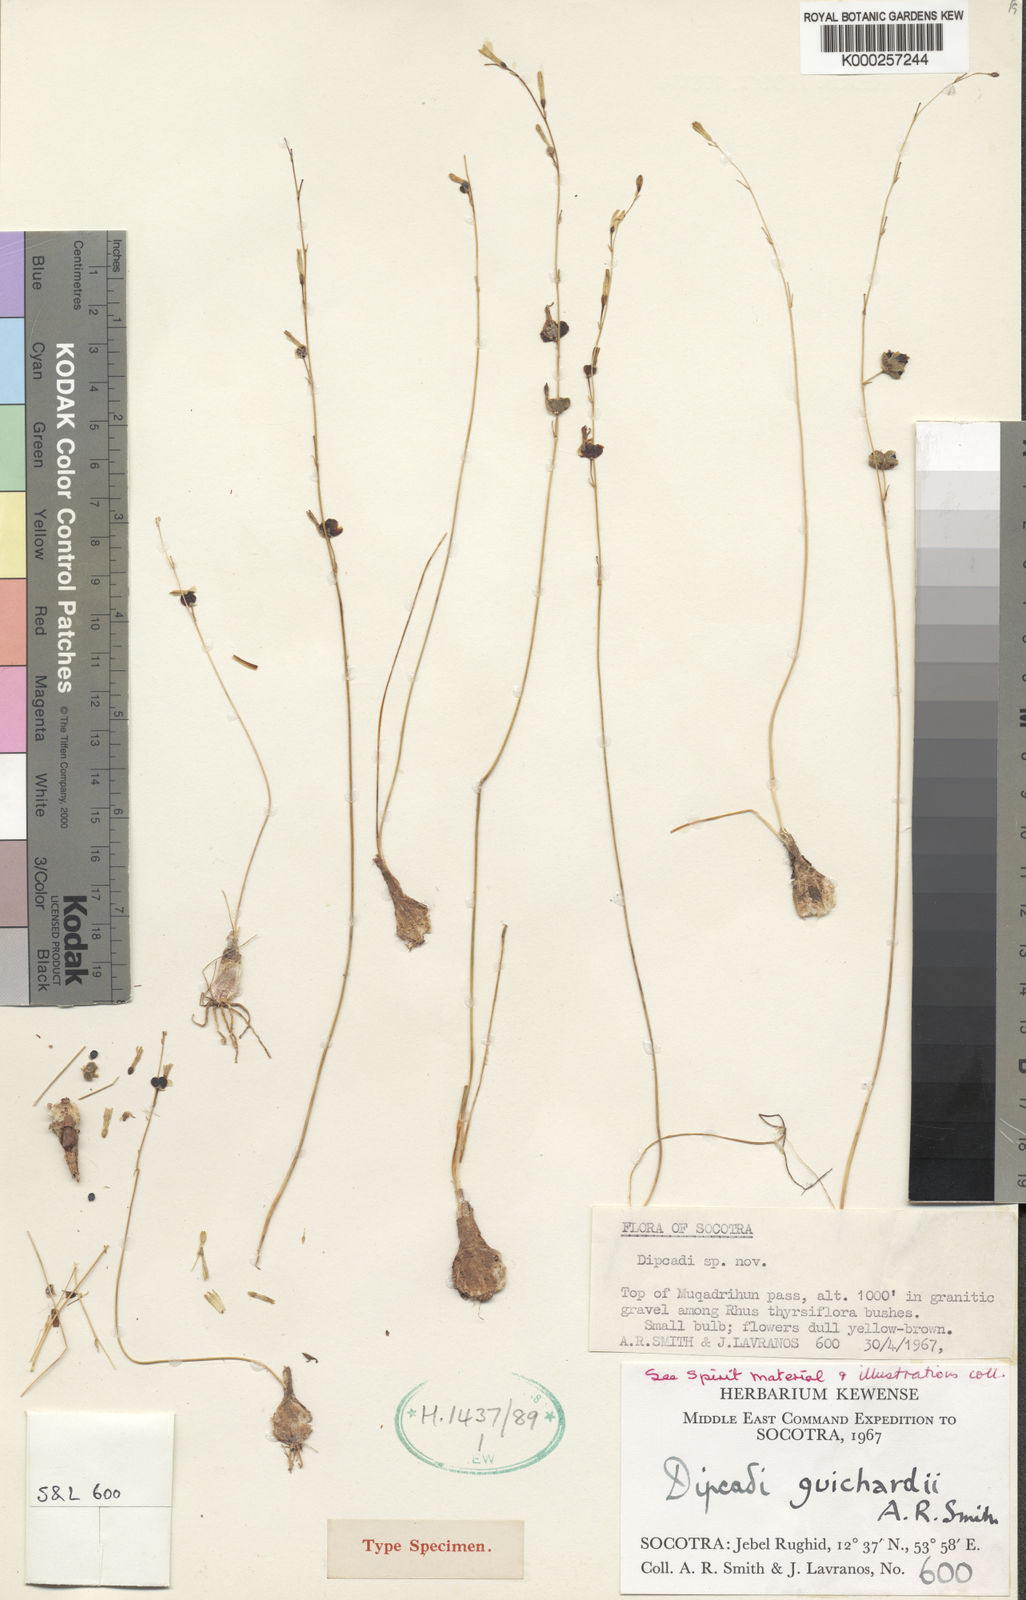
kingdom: Plantae
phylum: Tracheophyta
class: Liliopsida
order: Asparagales
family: Asparagaceae
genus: Dipcadi
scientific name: Dipcadi guichardii
